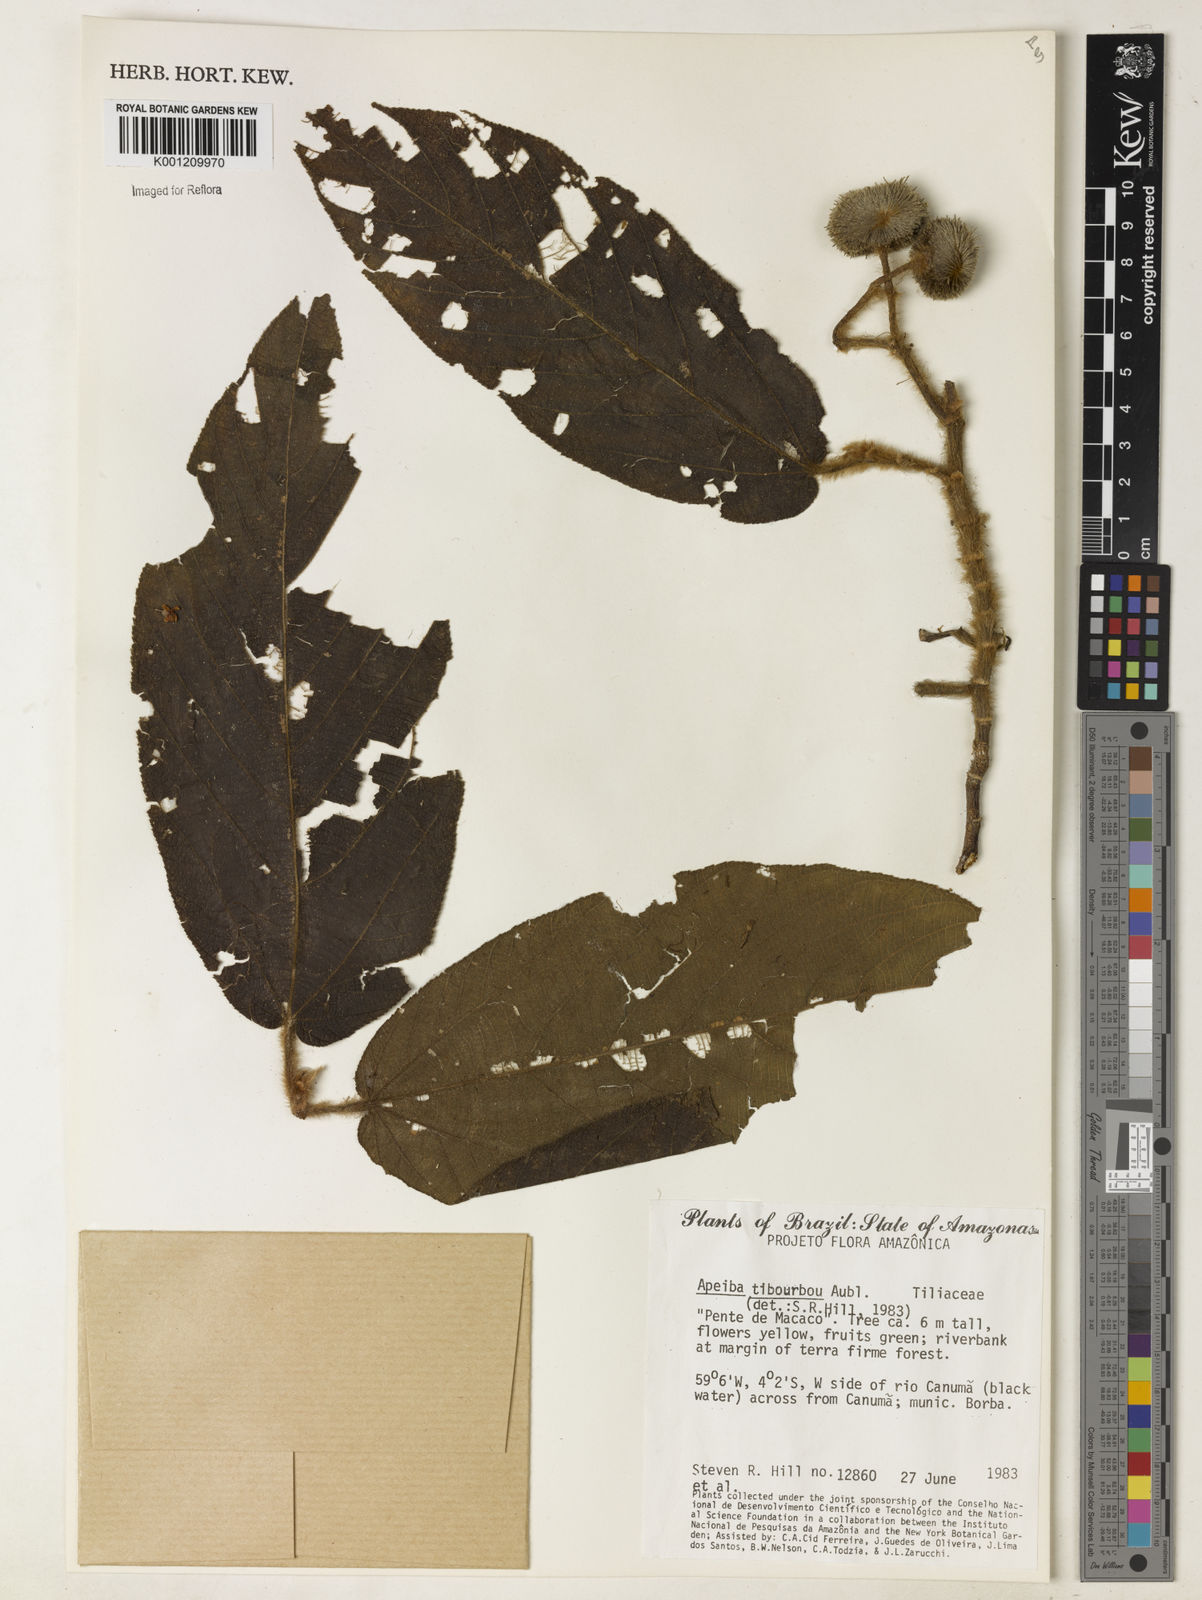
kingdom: Plantae
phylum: Tracheophyta
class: Magnoliopsida
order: Malvales
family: Malvaceae
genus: Apeiba
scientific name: Apeiba tibourbou
